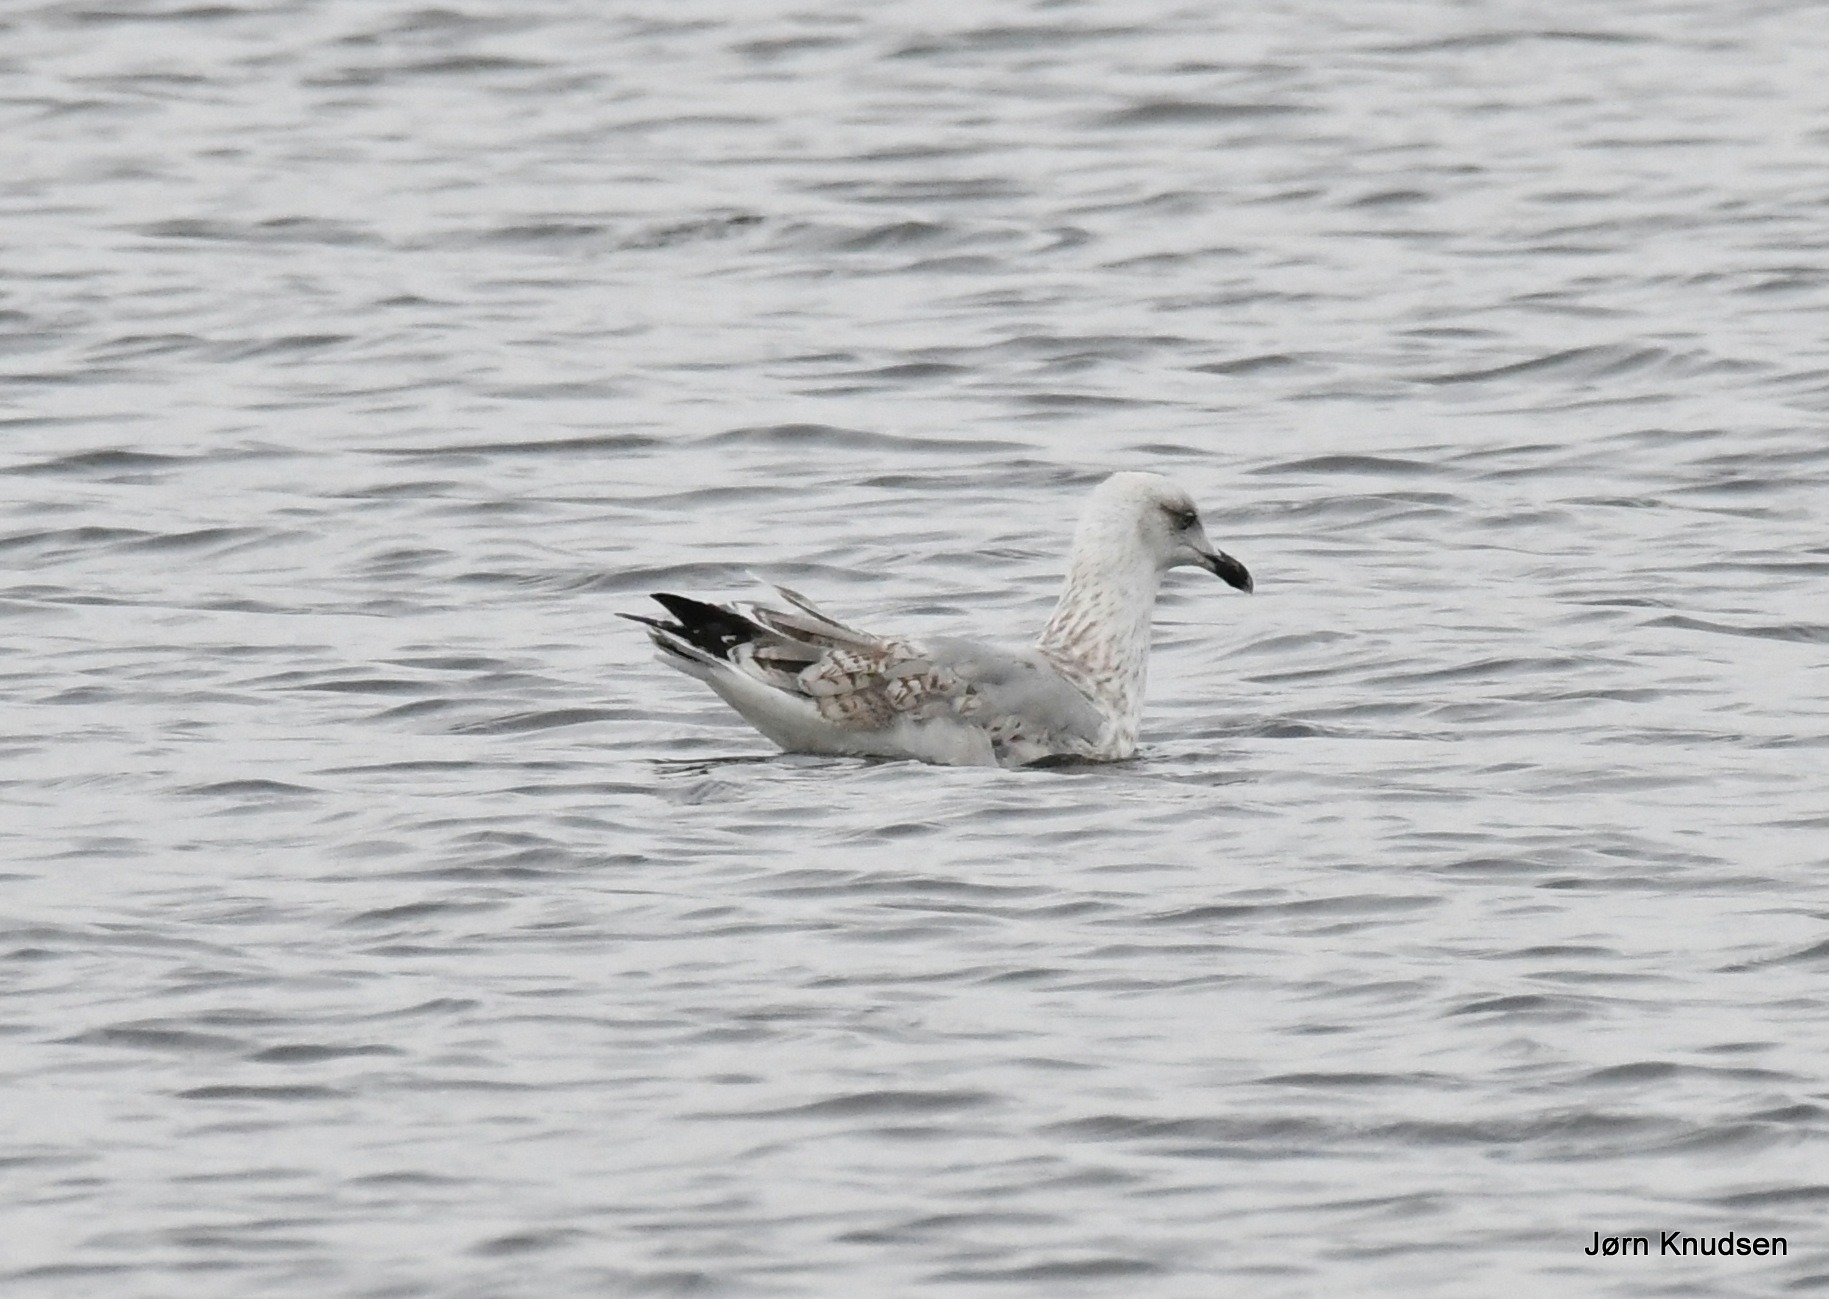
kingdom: Animalia
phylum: Chordata
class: Aves
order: Charadriiformes
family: Laridae
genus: Larus
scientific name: Larus argentatus
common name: Sølvmåge
